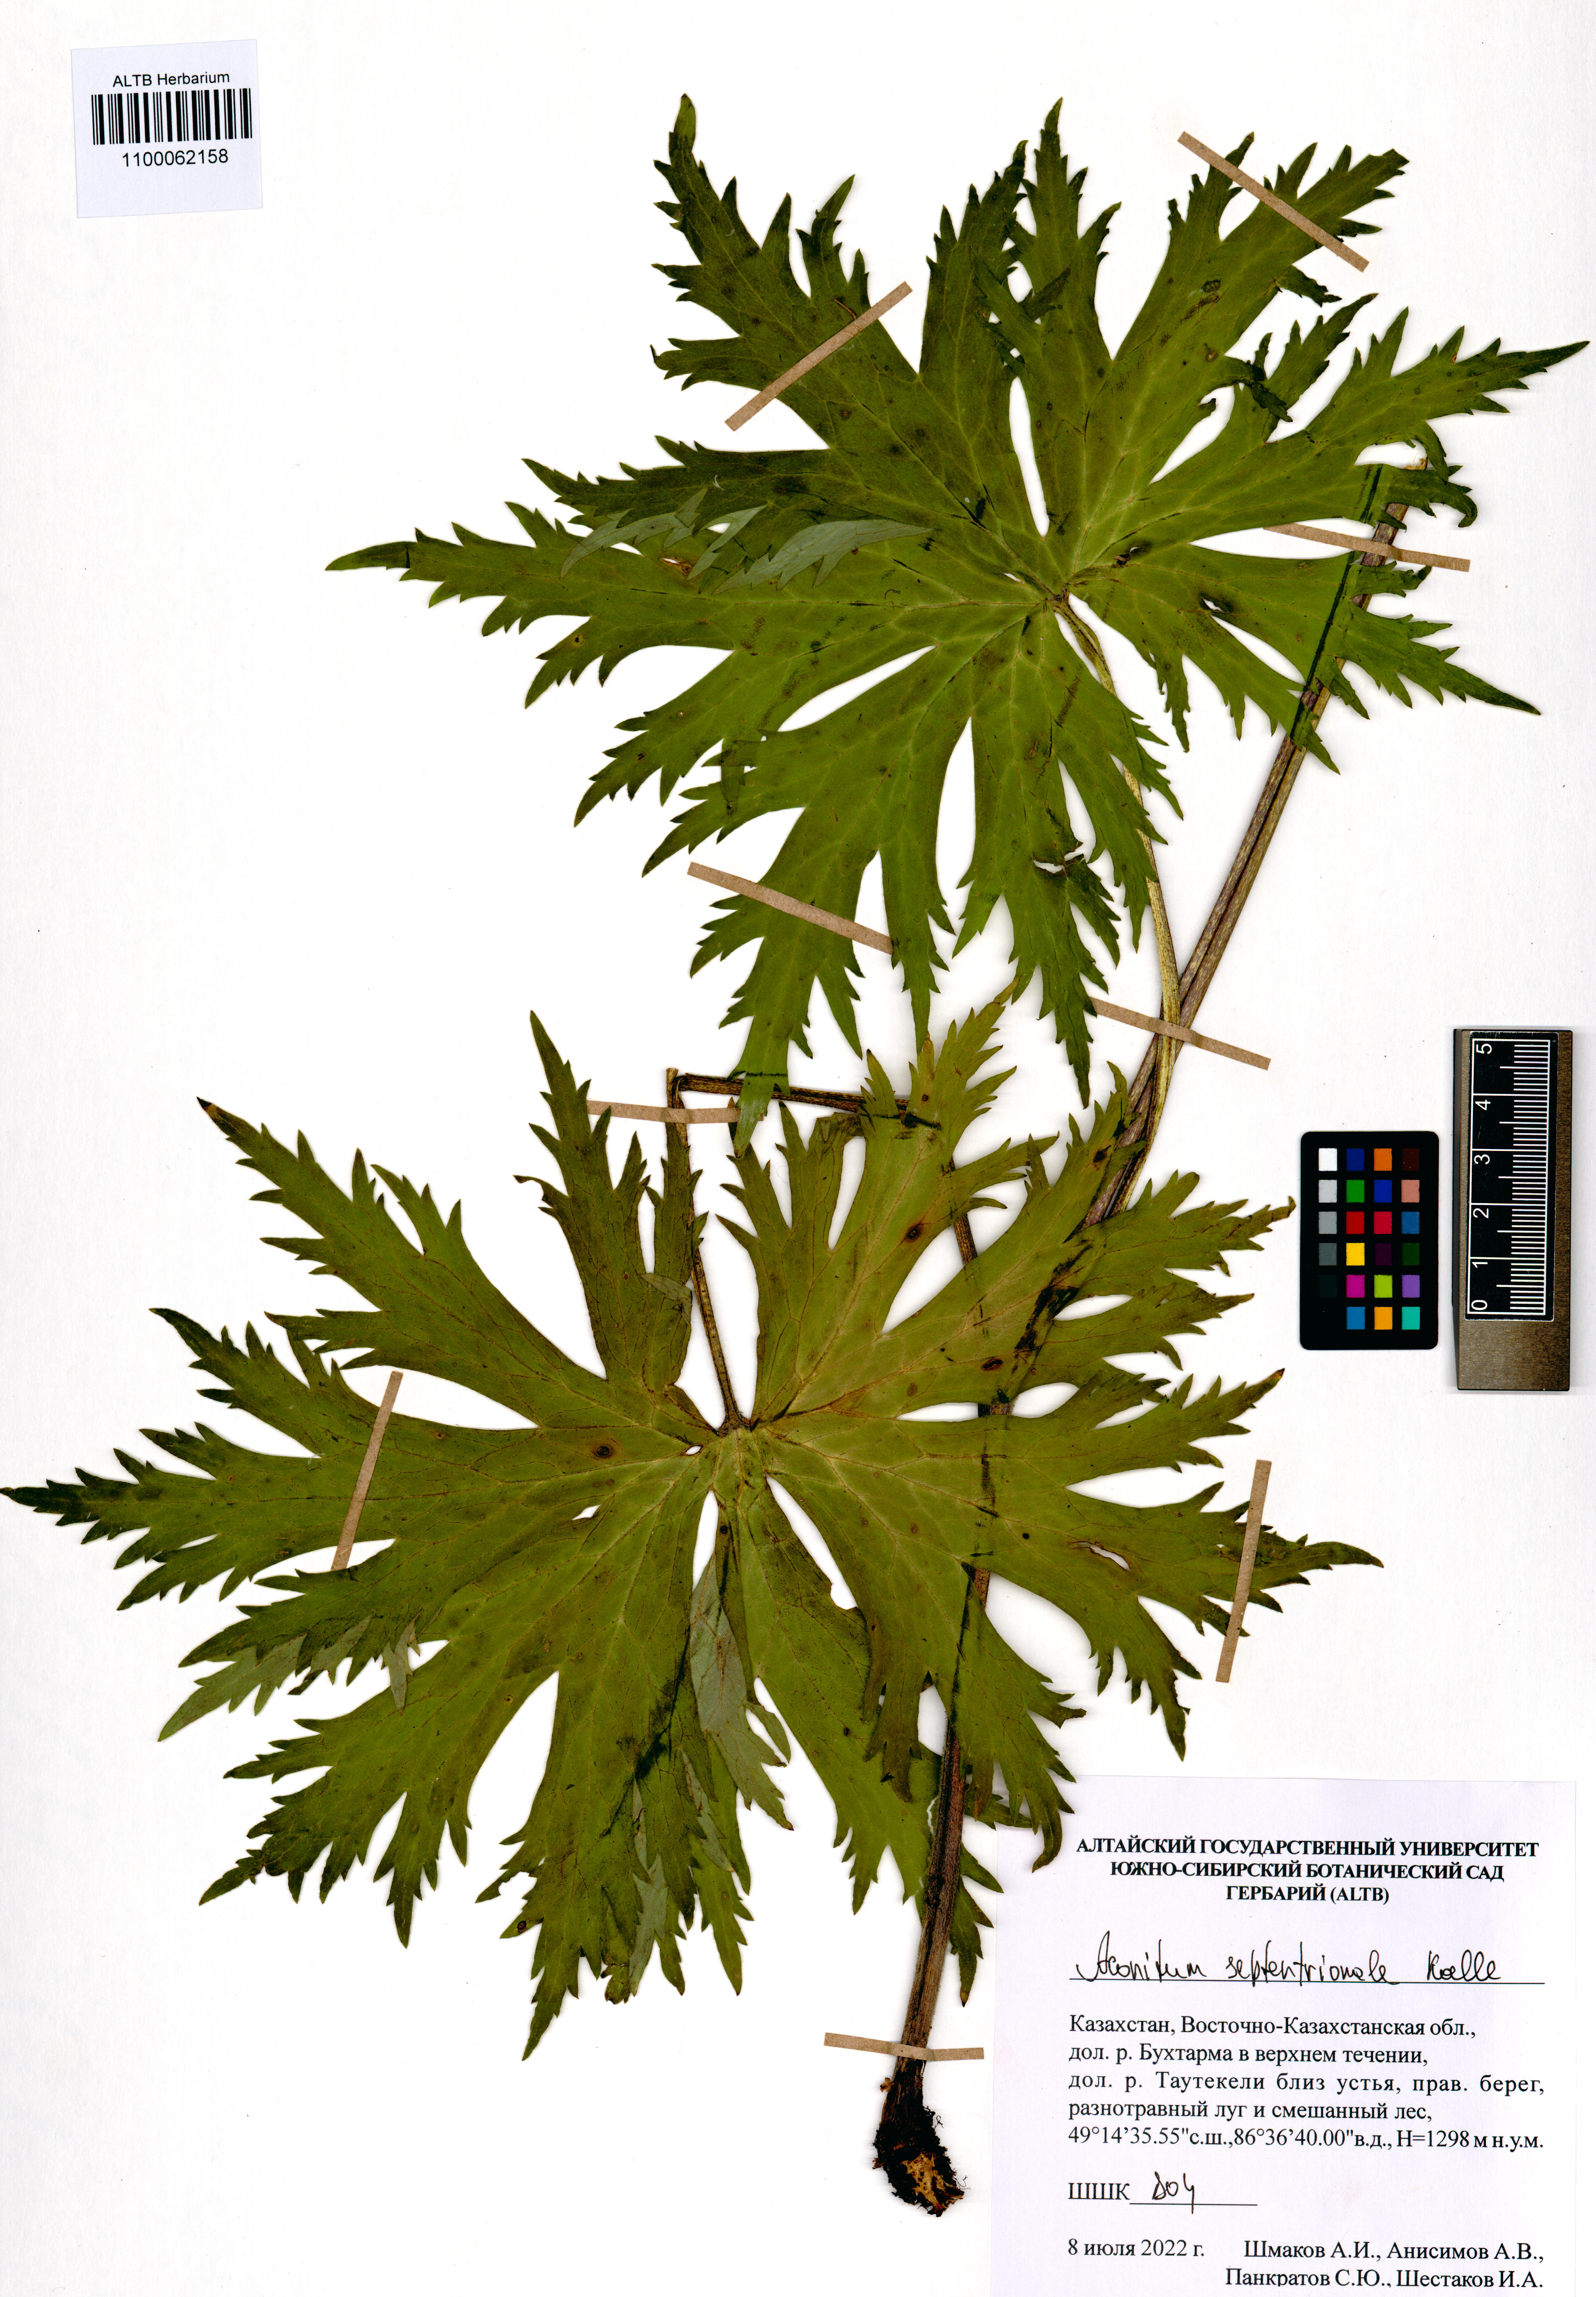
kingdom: Plantae
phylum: Tracheophyta
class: Magnoliopsida
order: Ranunculales
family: Ranunculaceae
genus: Aconitum
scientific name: Aconitum septentrionale
